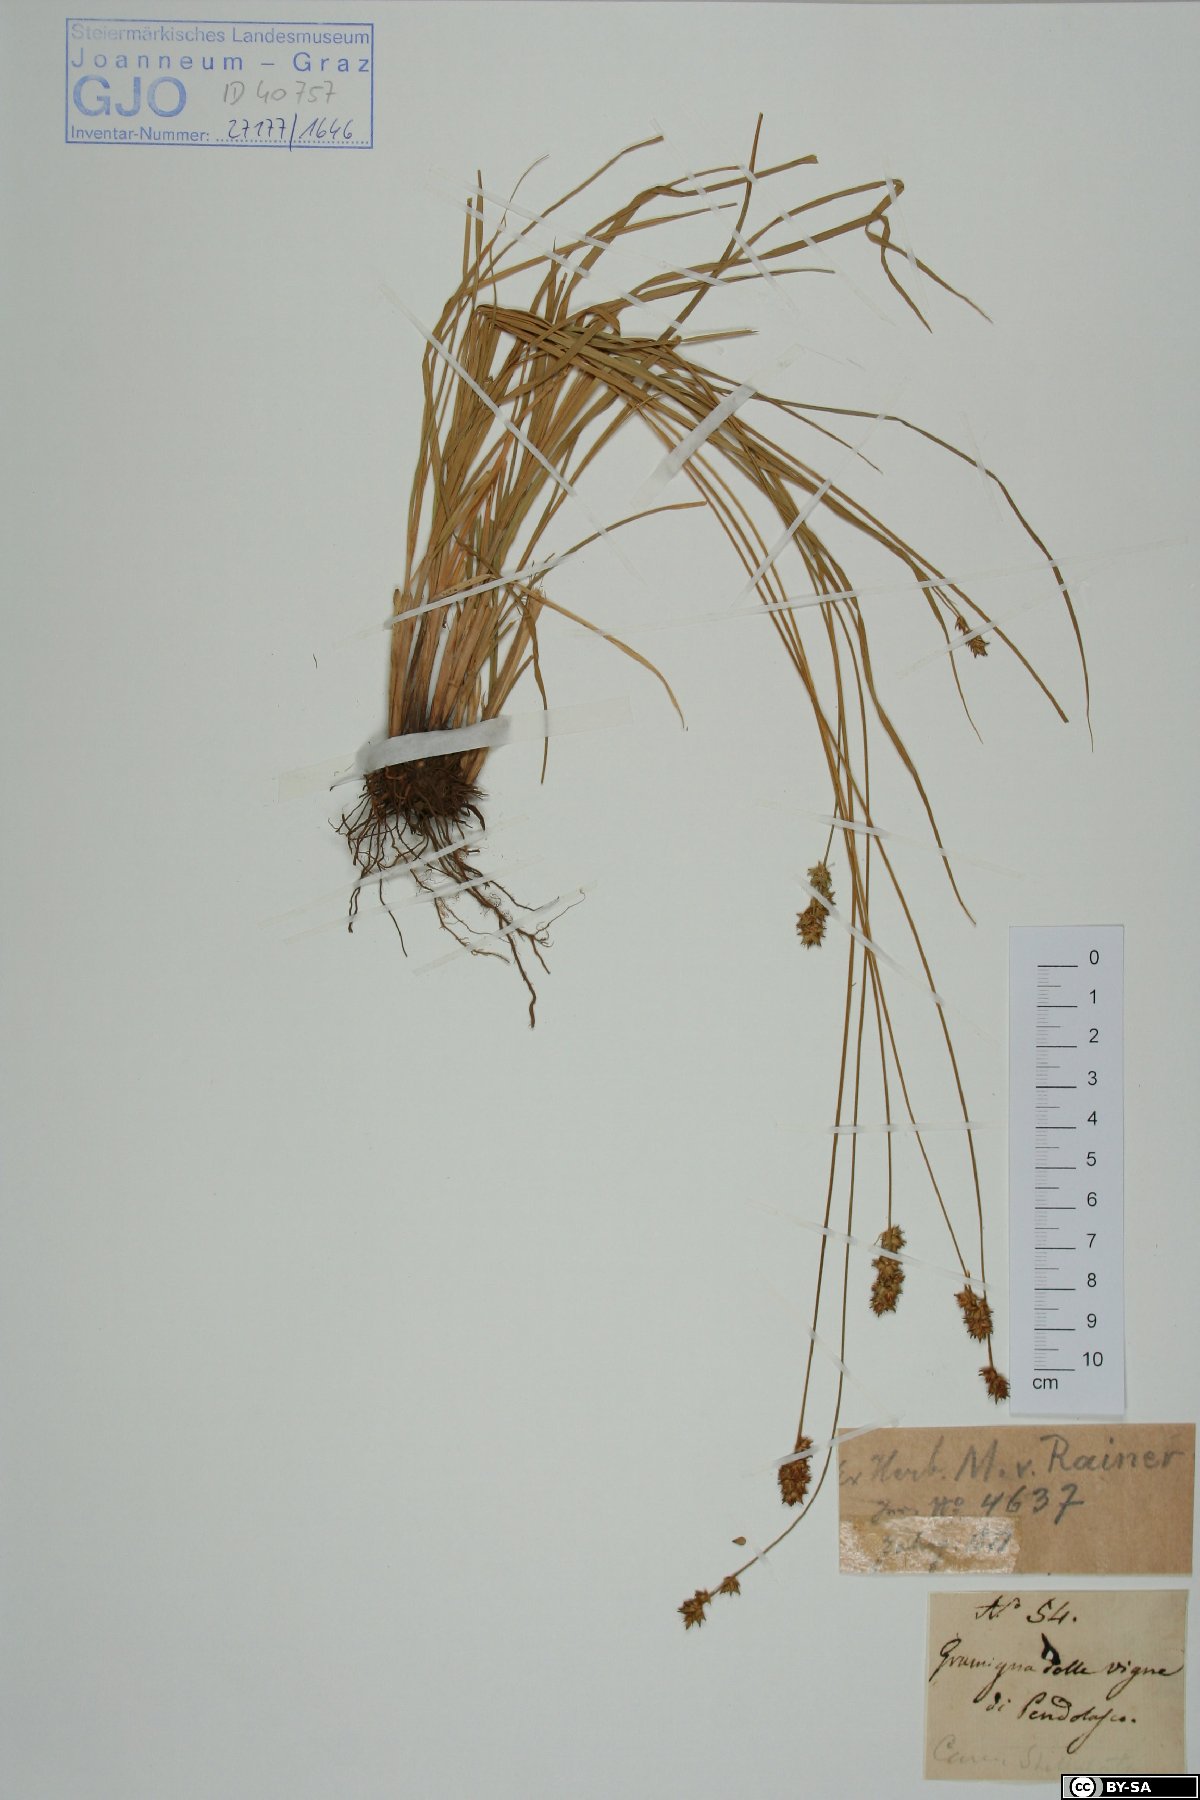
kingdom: Plantae
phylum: Tracheophyta
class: Liliopsida
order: Poales
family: Cyperaceae
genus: Carex
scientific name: Carex echinata
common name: Star sedge
